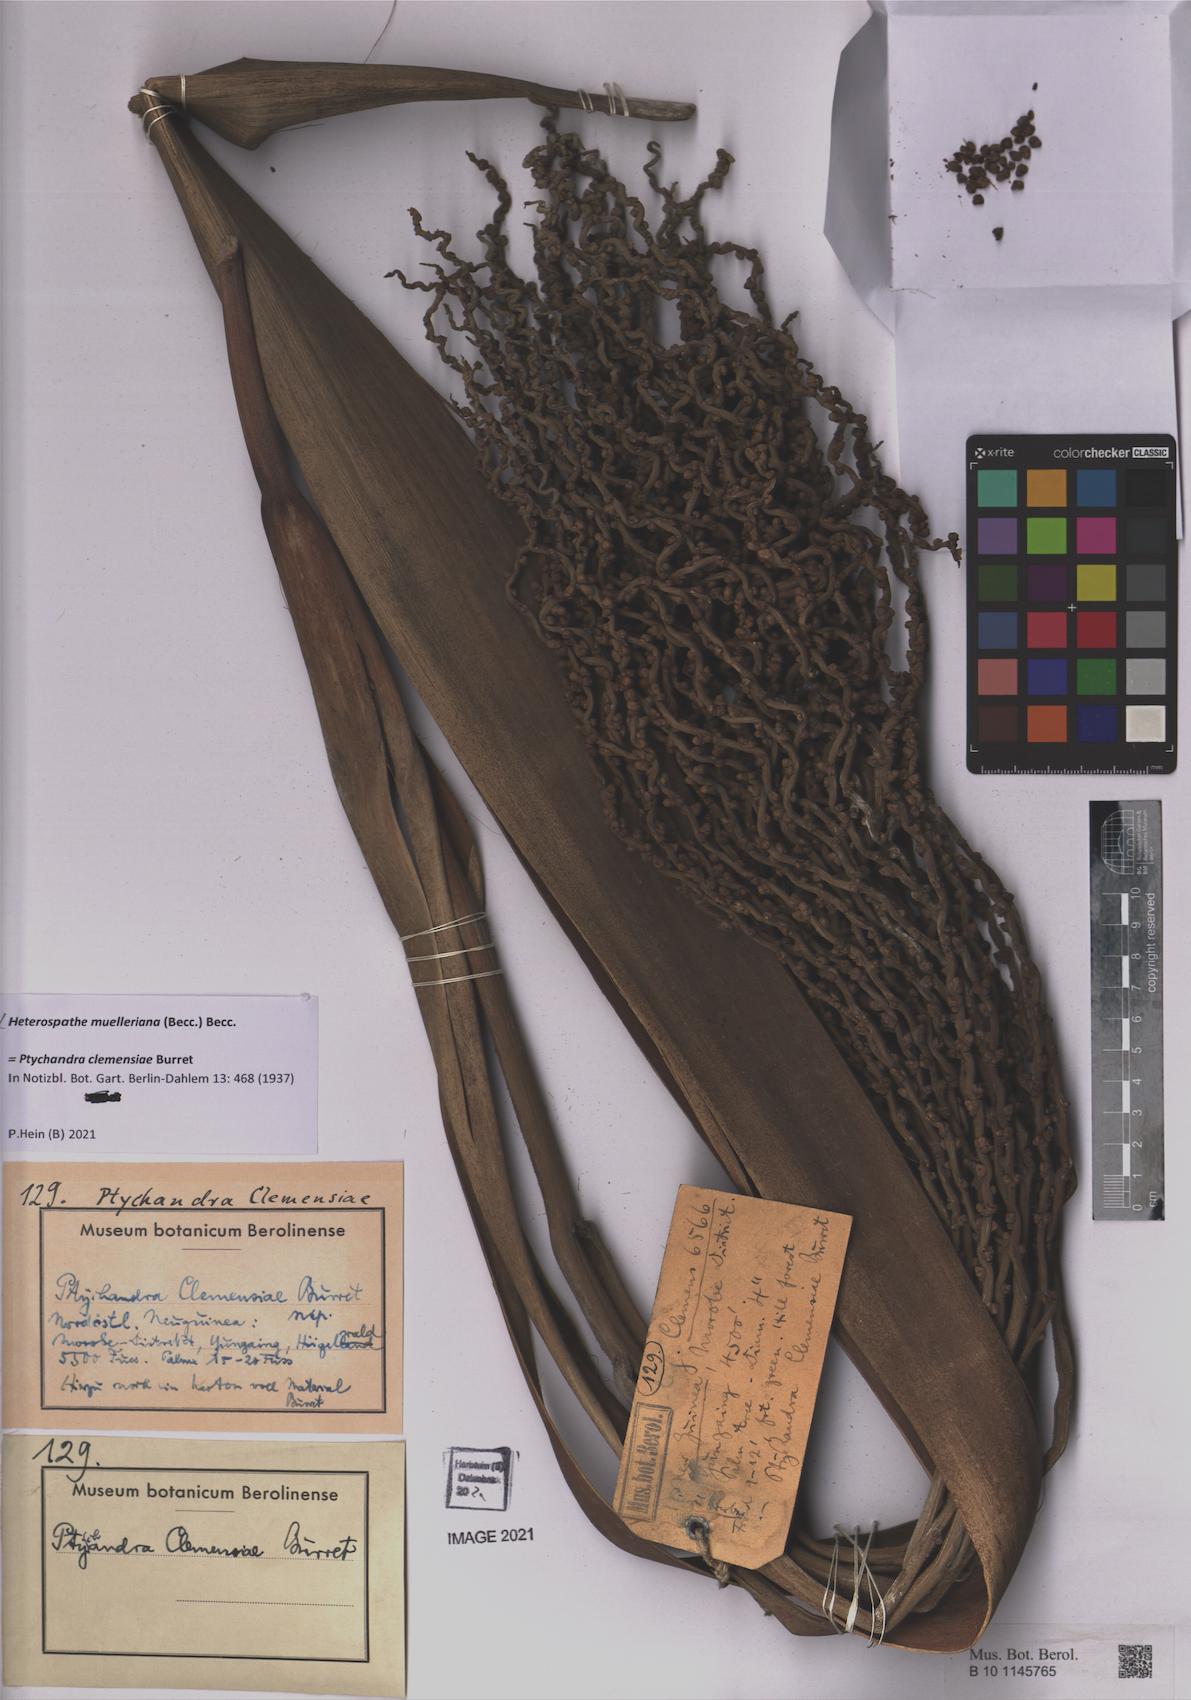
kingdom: Plantae
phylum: Tracheophyta
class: Liliopsida
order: Arecales
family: Arecaceae
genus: Heterospathe
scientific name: Heterospathe muelleriana
